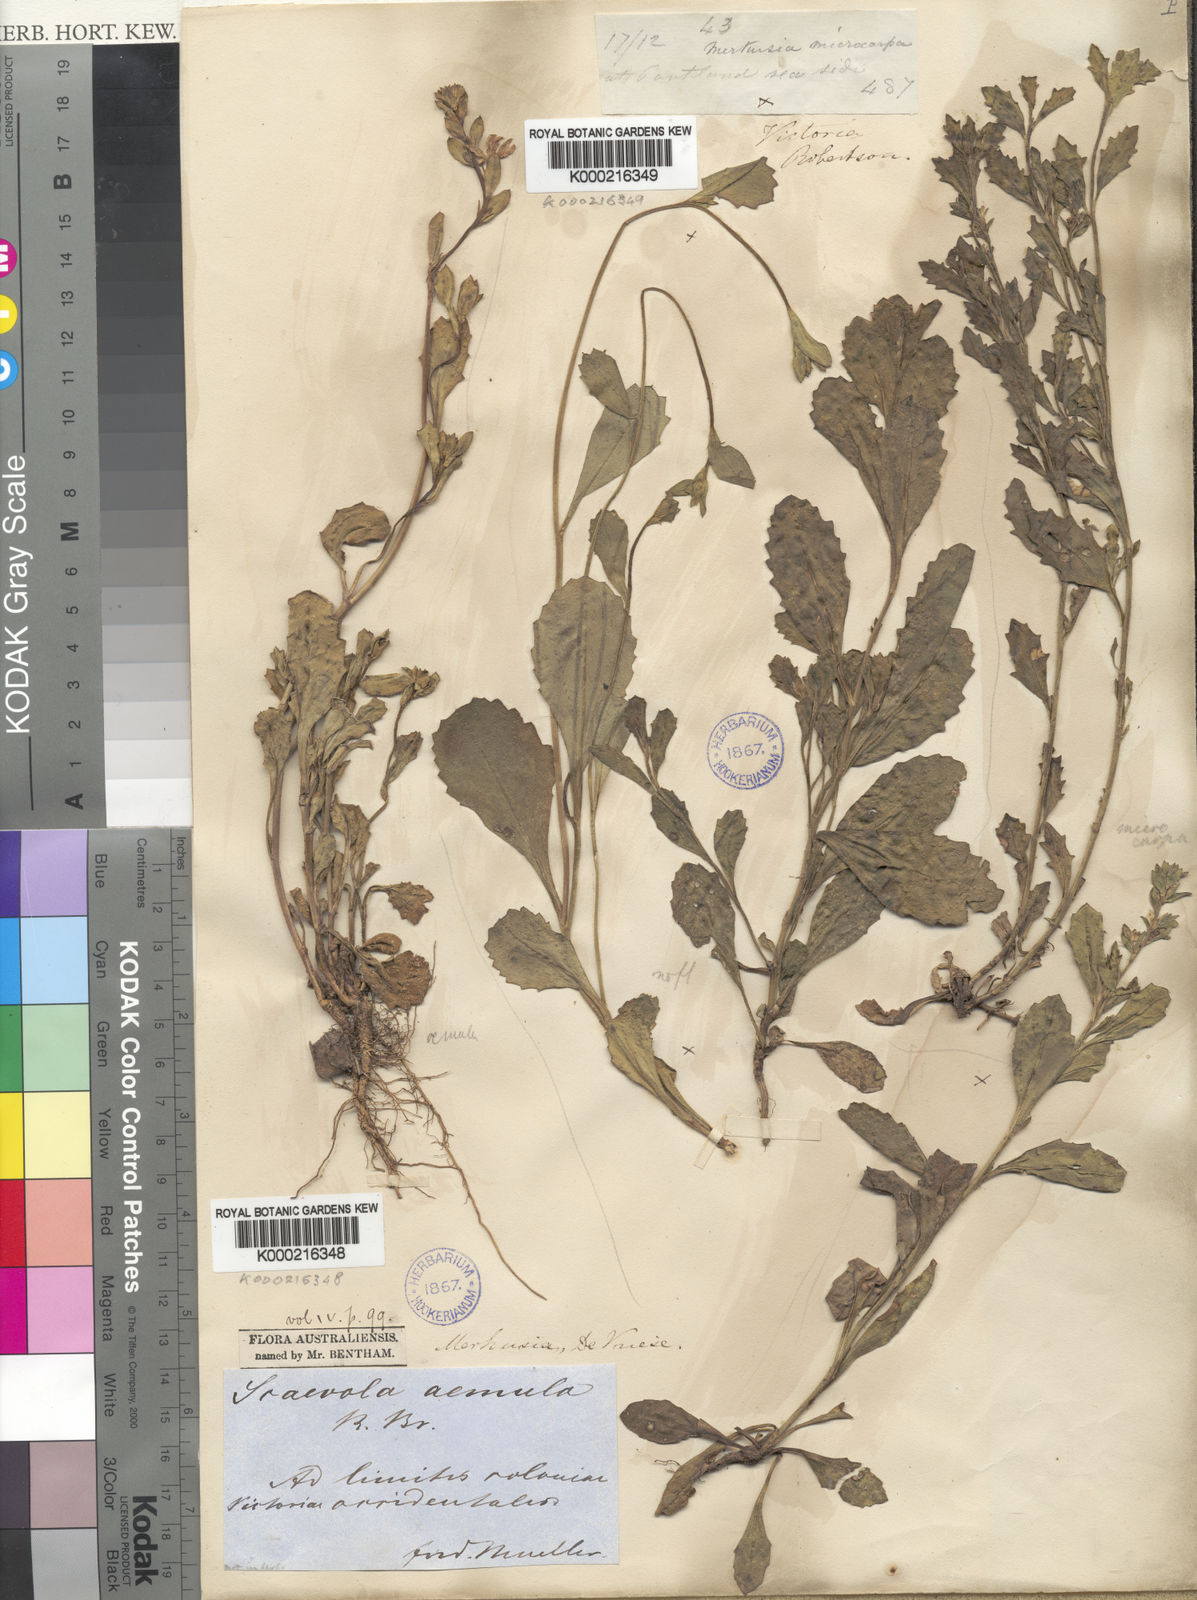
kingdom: Plantae
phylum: Tracheophyta
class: Magnoliopsida
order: Asterales
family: Goodeniaceae
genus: Scaevola
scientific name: Scaevola albida
